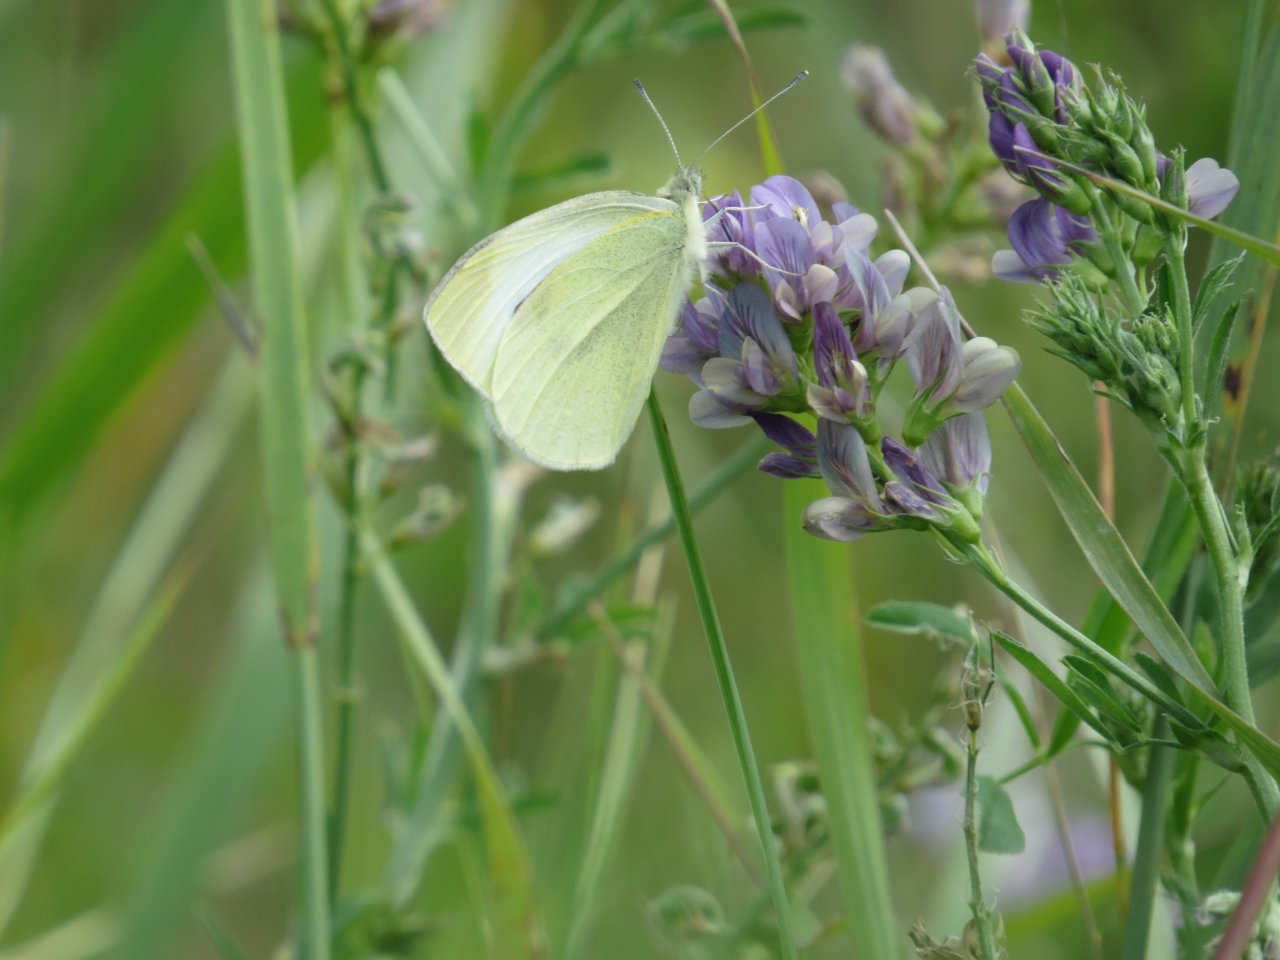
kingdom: Animalia
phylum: Arthropoda
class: Insecta
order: Lepidoptera
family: Pieridae
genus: Pieris
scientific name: Pieris rapae
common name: Cabbage White
